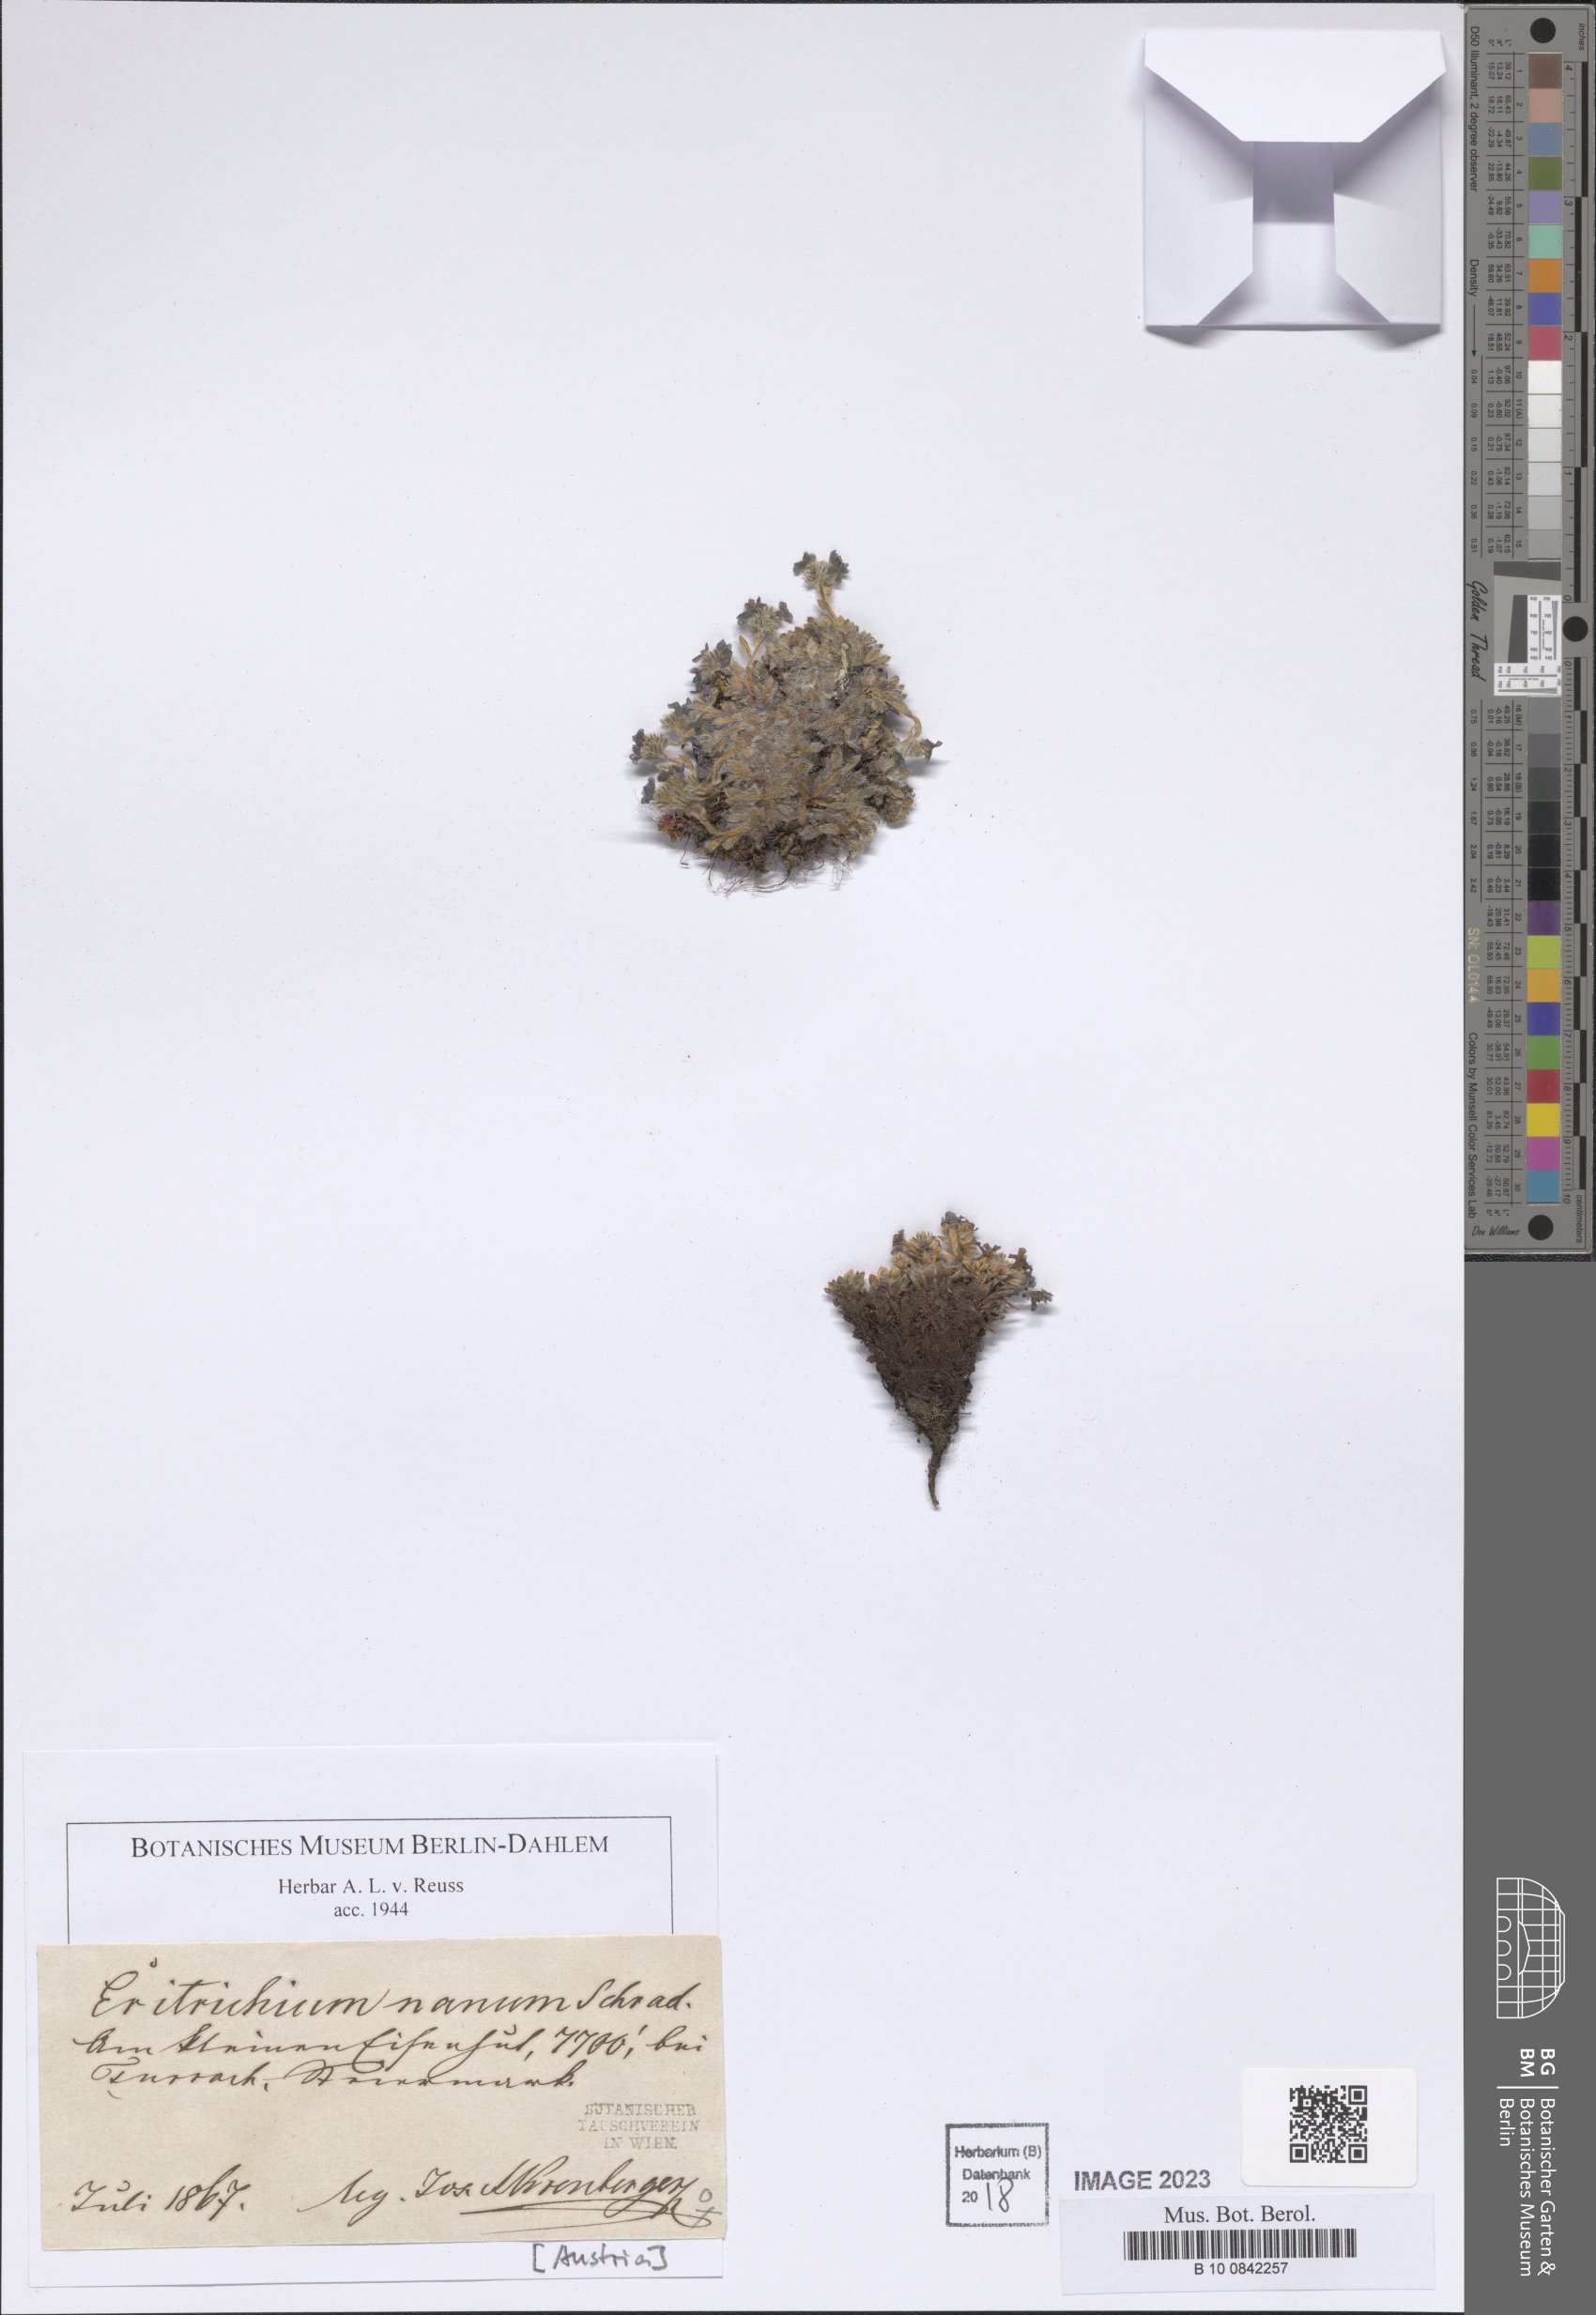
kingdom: Plantae
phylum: Tracheophyta
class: Magnoliopsida
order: Boraginales
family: Boraginaceae
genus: Eritrichium
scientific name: Eritrichium nanum
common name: King-of-the-alps
